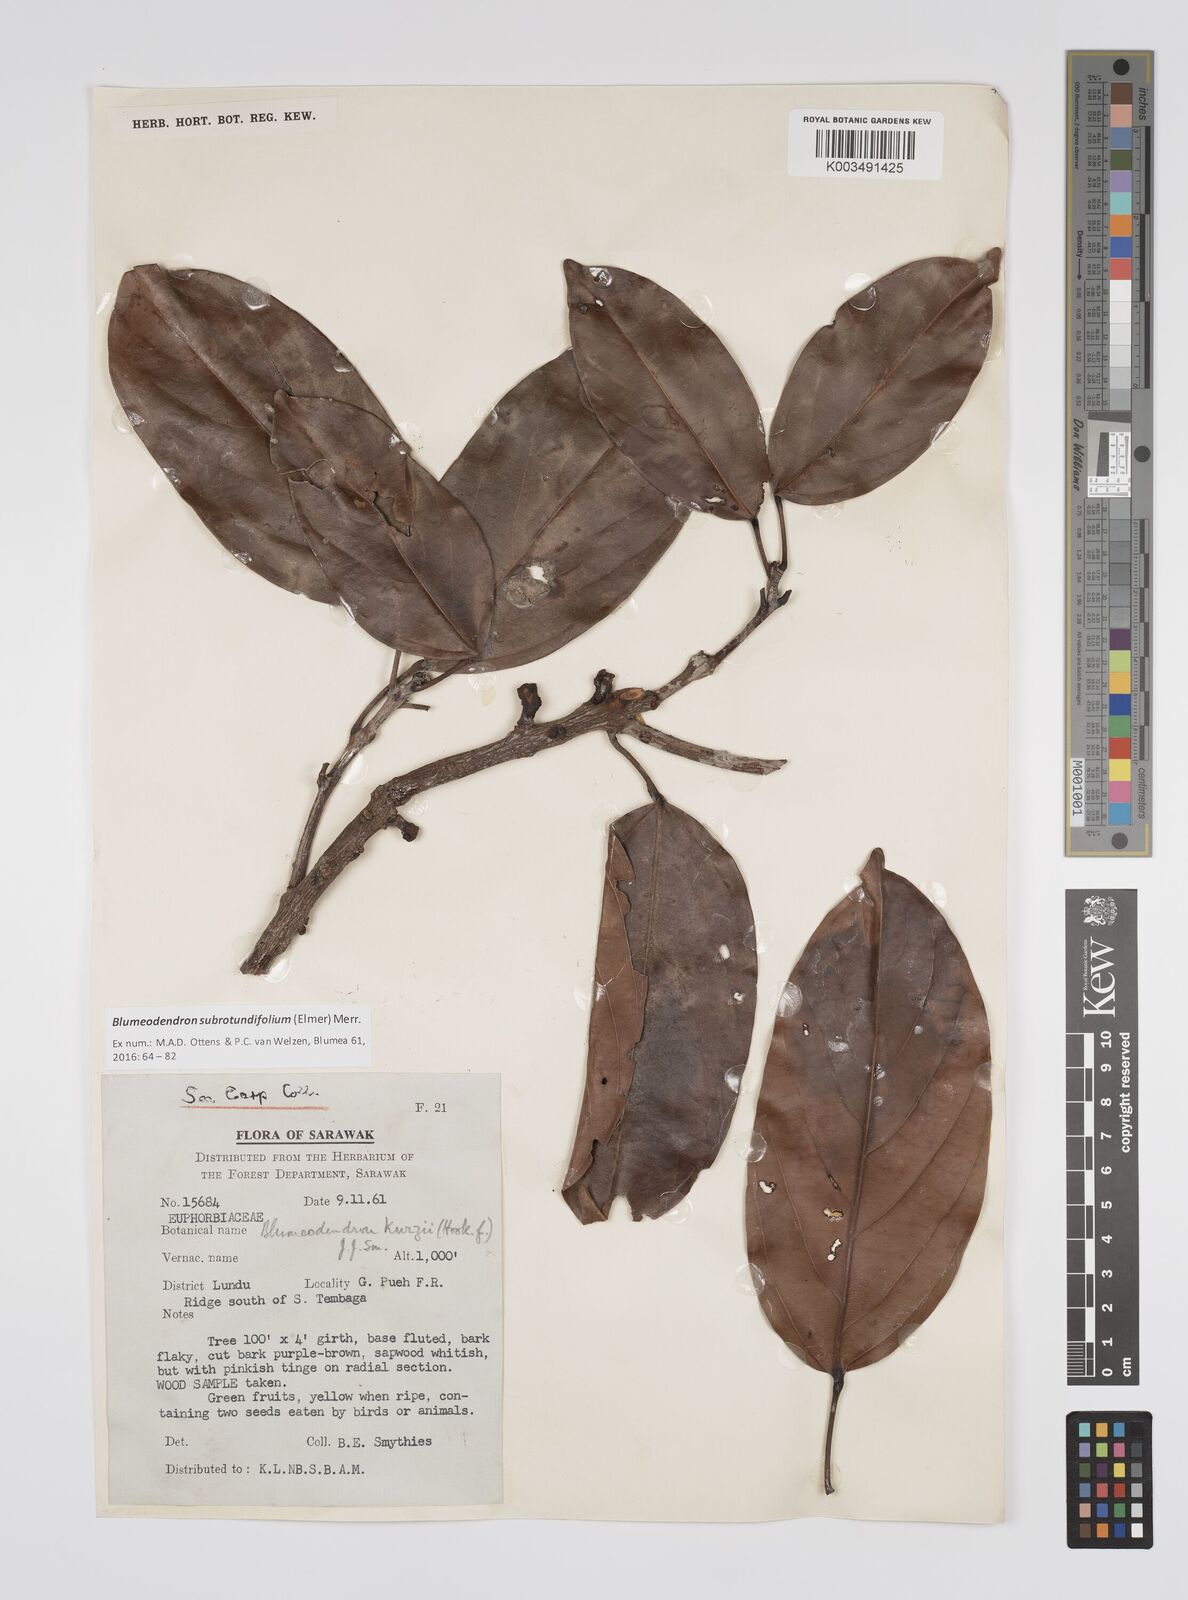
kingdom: Plantae
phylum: Tracheophyta
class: Magnoliopsida
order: Malpighiales
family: Euphorbiaceae
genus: Blumeodendron
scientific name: Blumeodendron subrotundifolium
